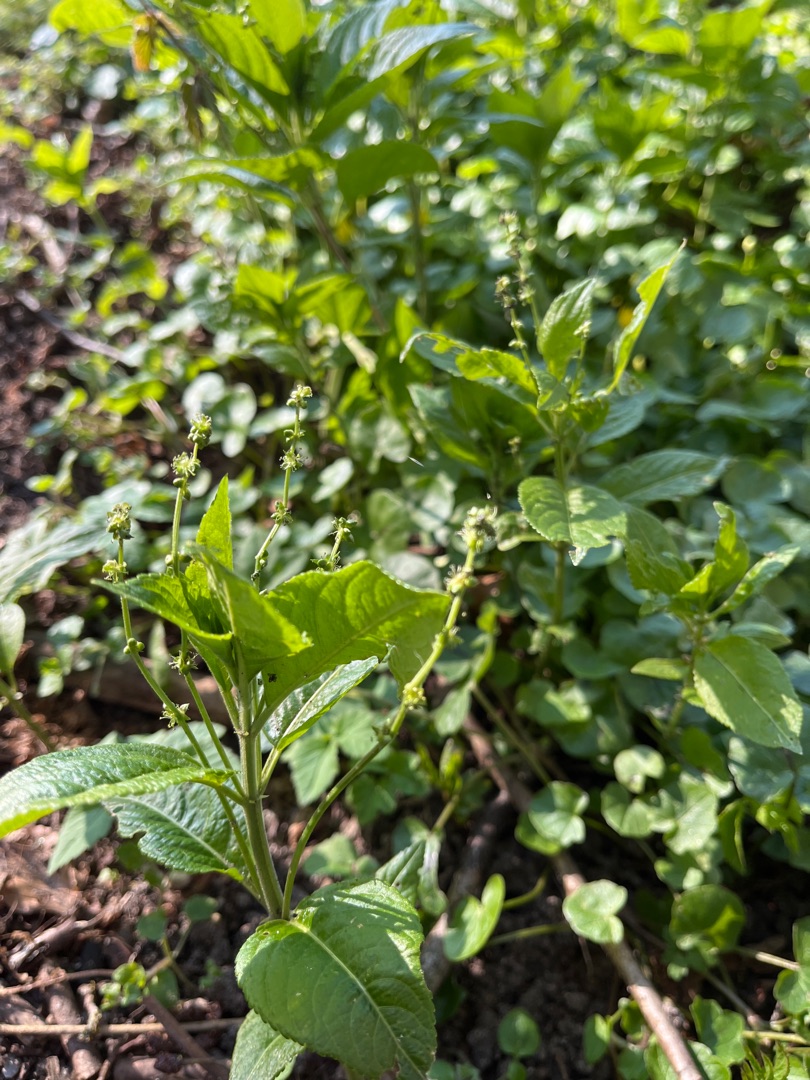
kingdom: Plantae
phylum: Tracheophyta
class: Magnoliopsida
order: Malpighiales
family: Euphorbiaceae
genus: Mercurialis
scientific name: Mercurialis perennis
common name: Almindelig bingelurt
